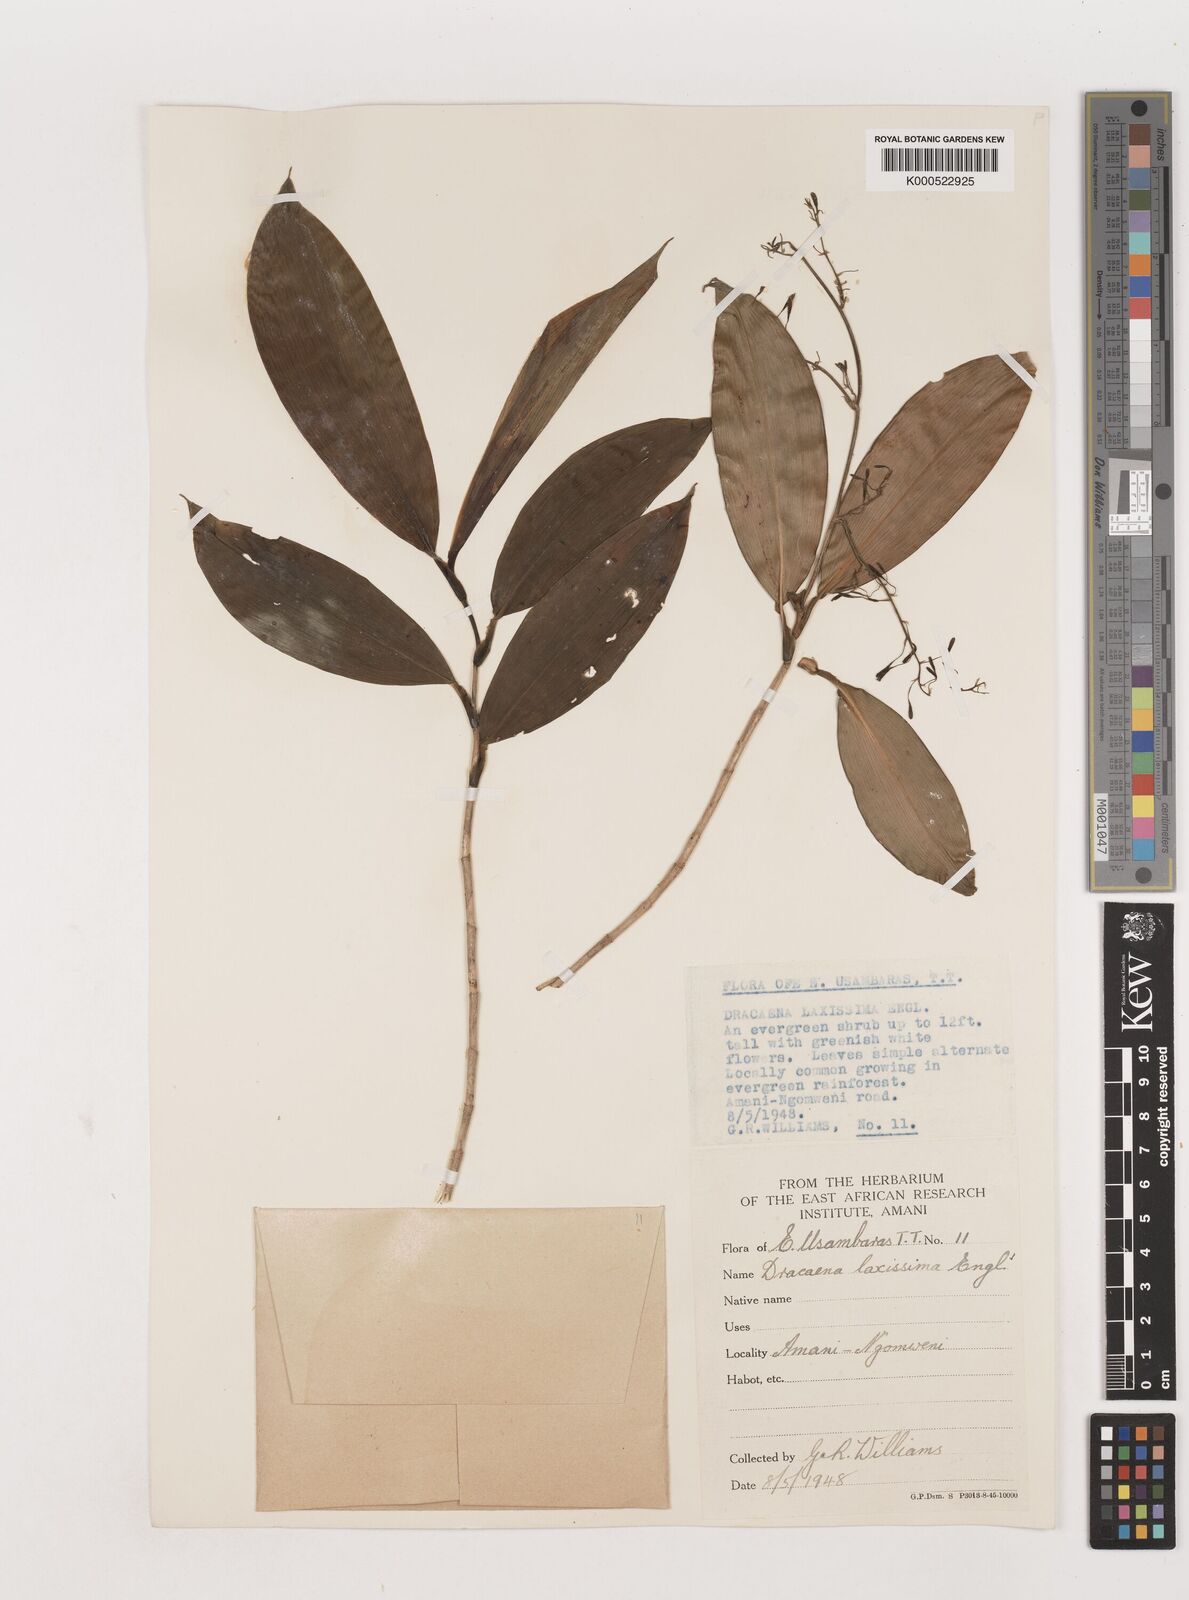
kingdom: Plantae
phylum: Tracheophyta
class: Liliopsida
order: Asparagales
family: Asparagaceae
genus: Dracaena
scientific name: Dracaena laxissima
